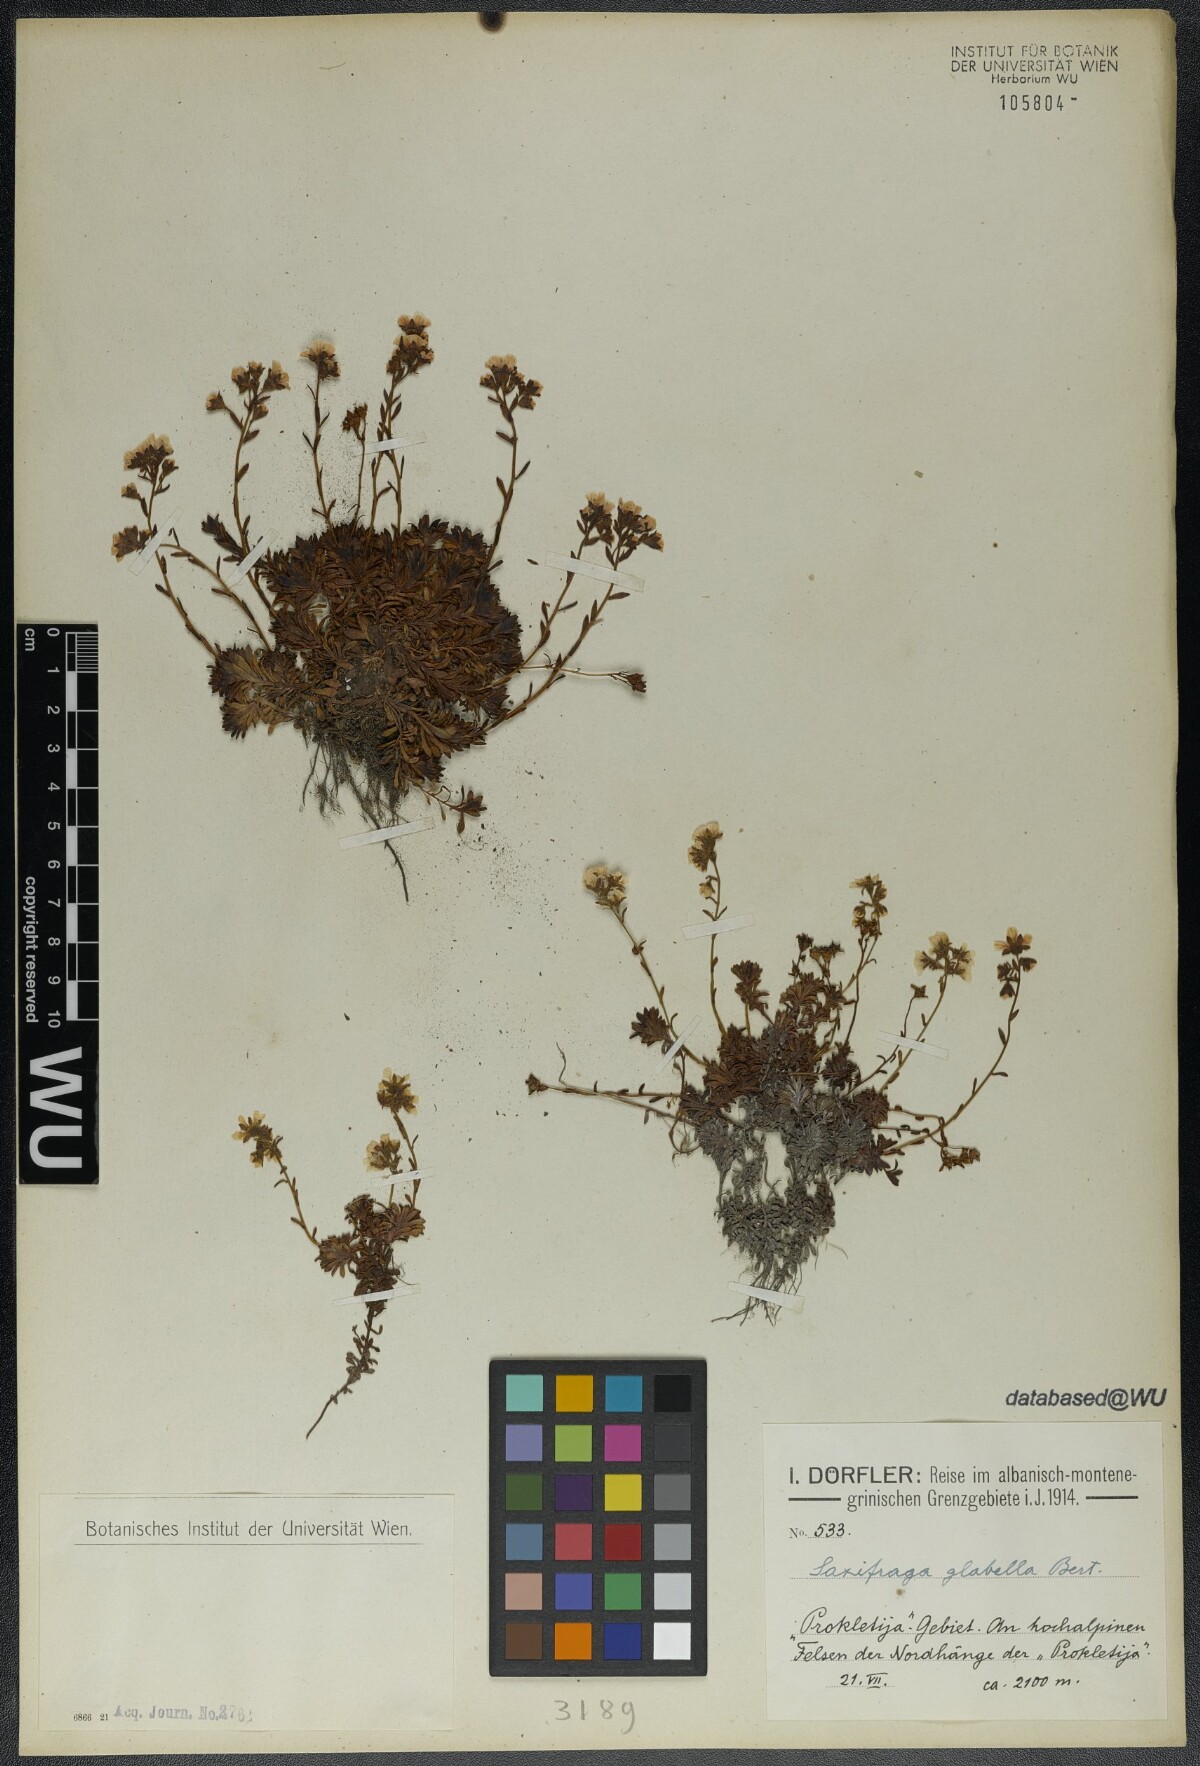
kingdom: Plantae
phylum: Tracheophyta
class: Magnoliopsida
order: Saxifragales
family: Saxifragaceae
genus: Saxifraga
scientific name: Saxifraga glabella
